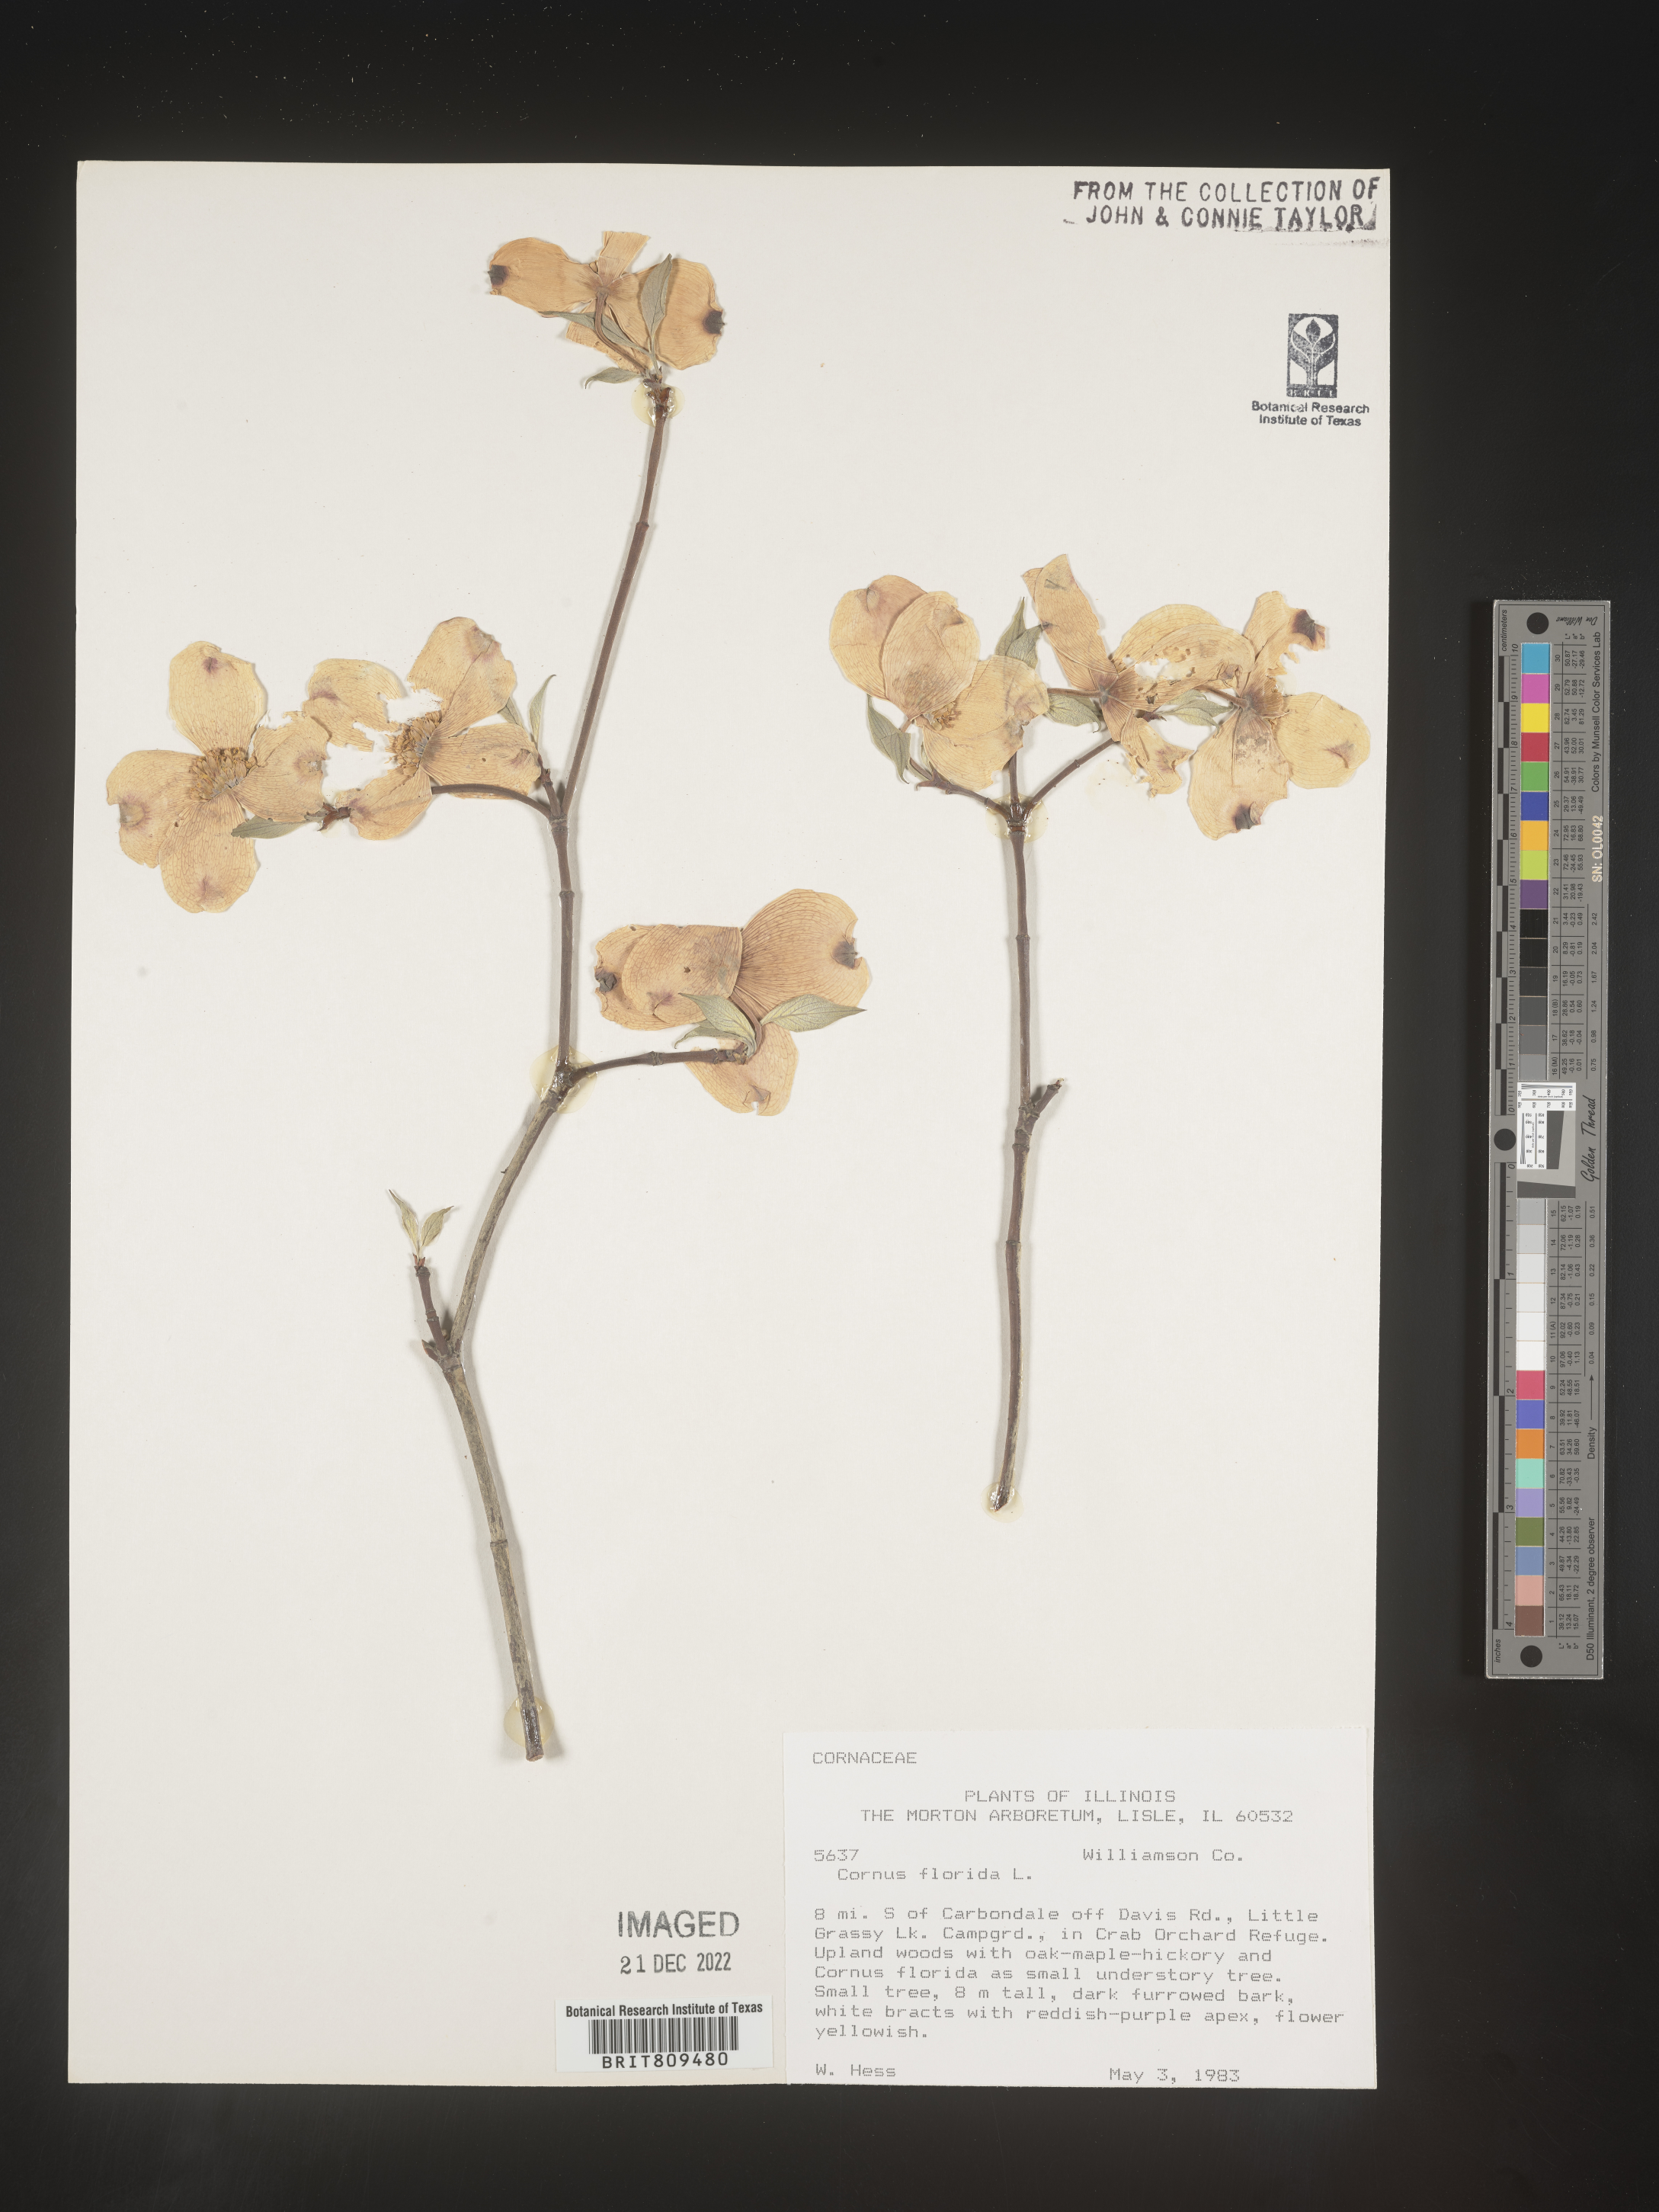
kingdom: Plantae
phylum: Tracheophyta
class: Magnoliopsida
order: Cornales
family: Cornaceae
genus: Cornus
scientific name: Cornus florida
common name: Flowering dogwood
